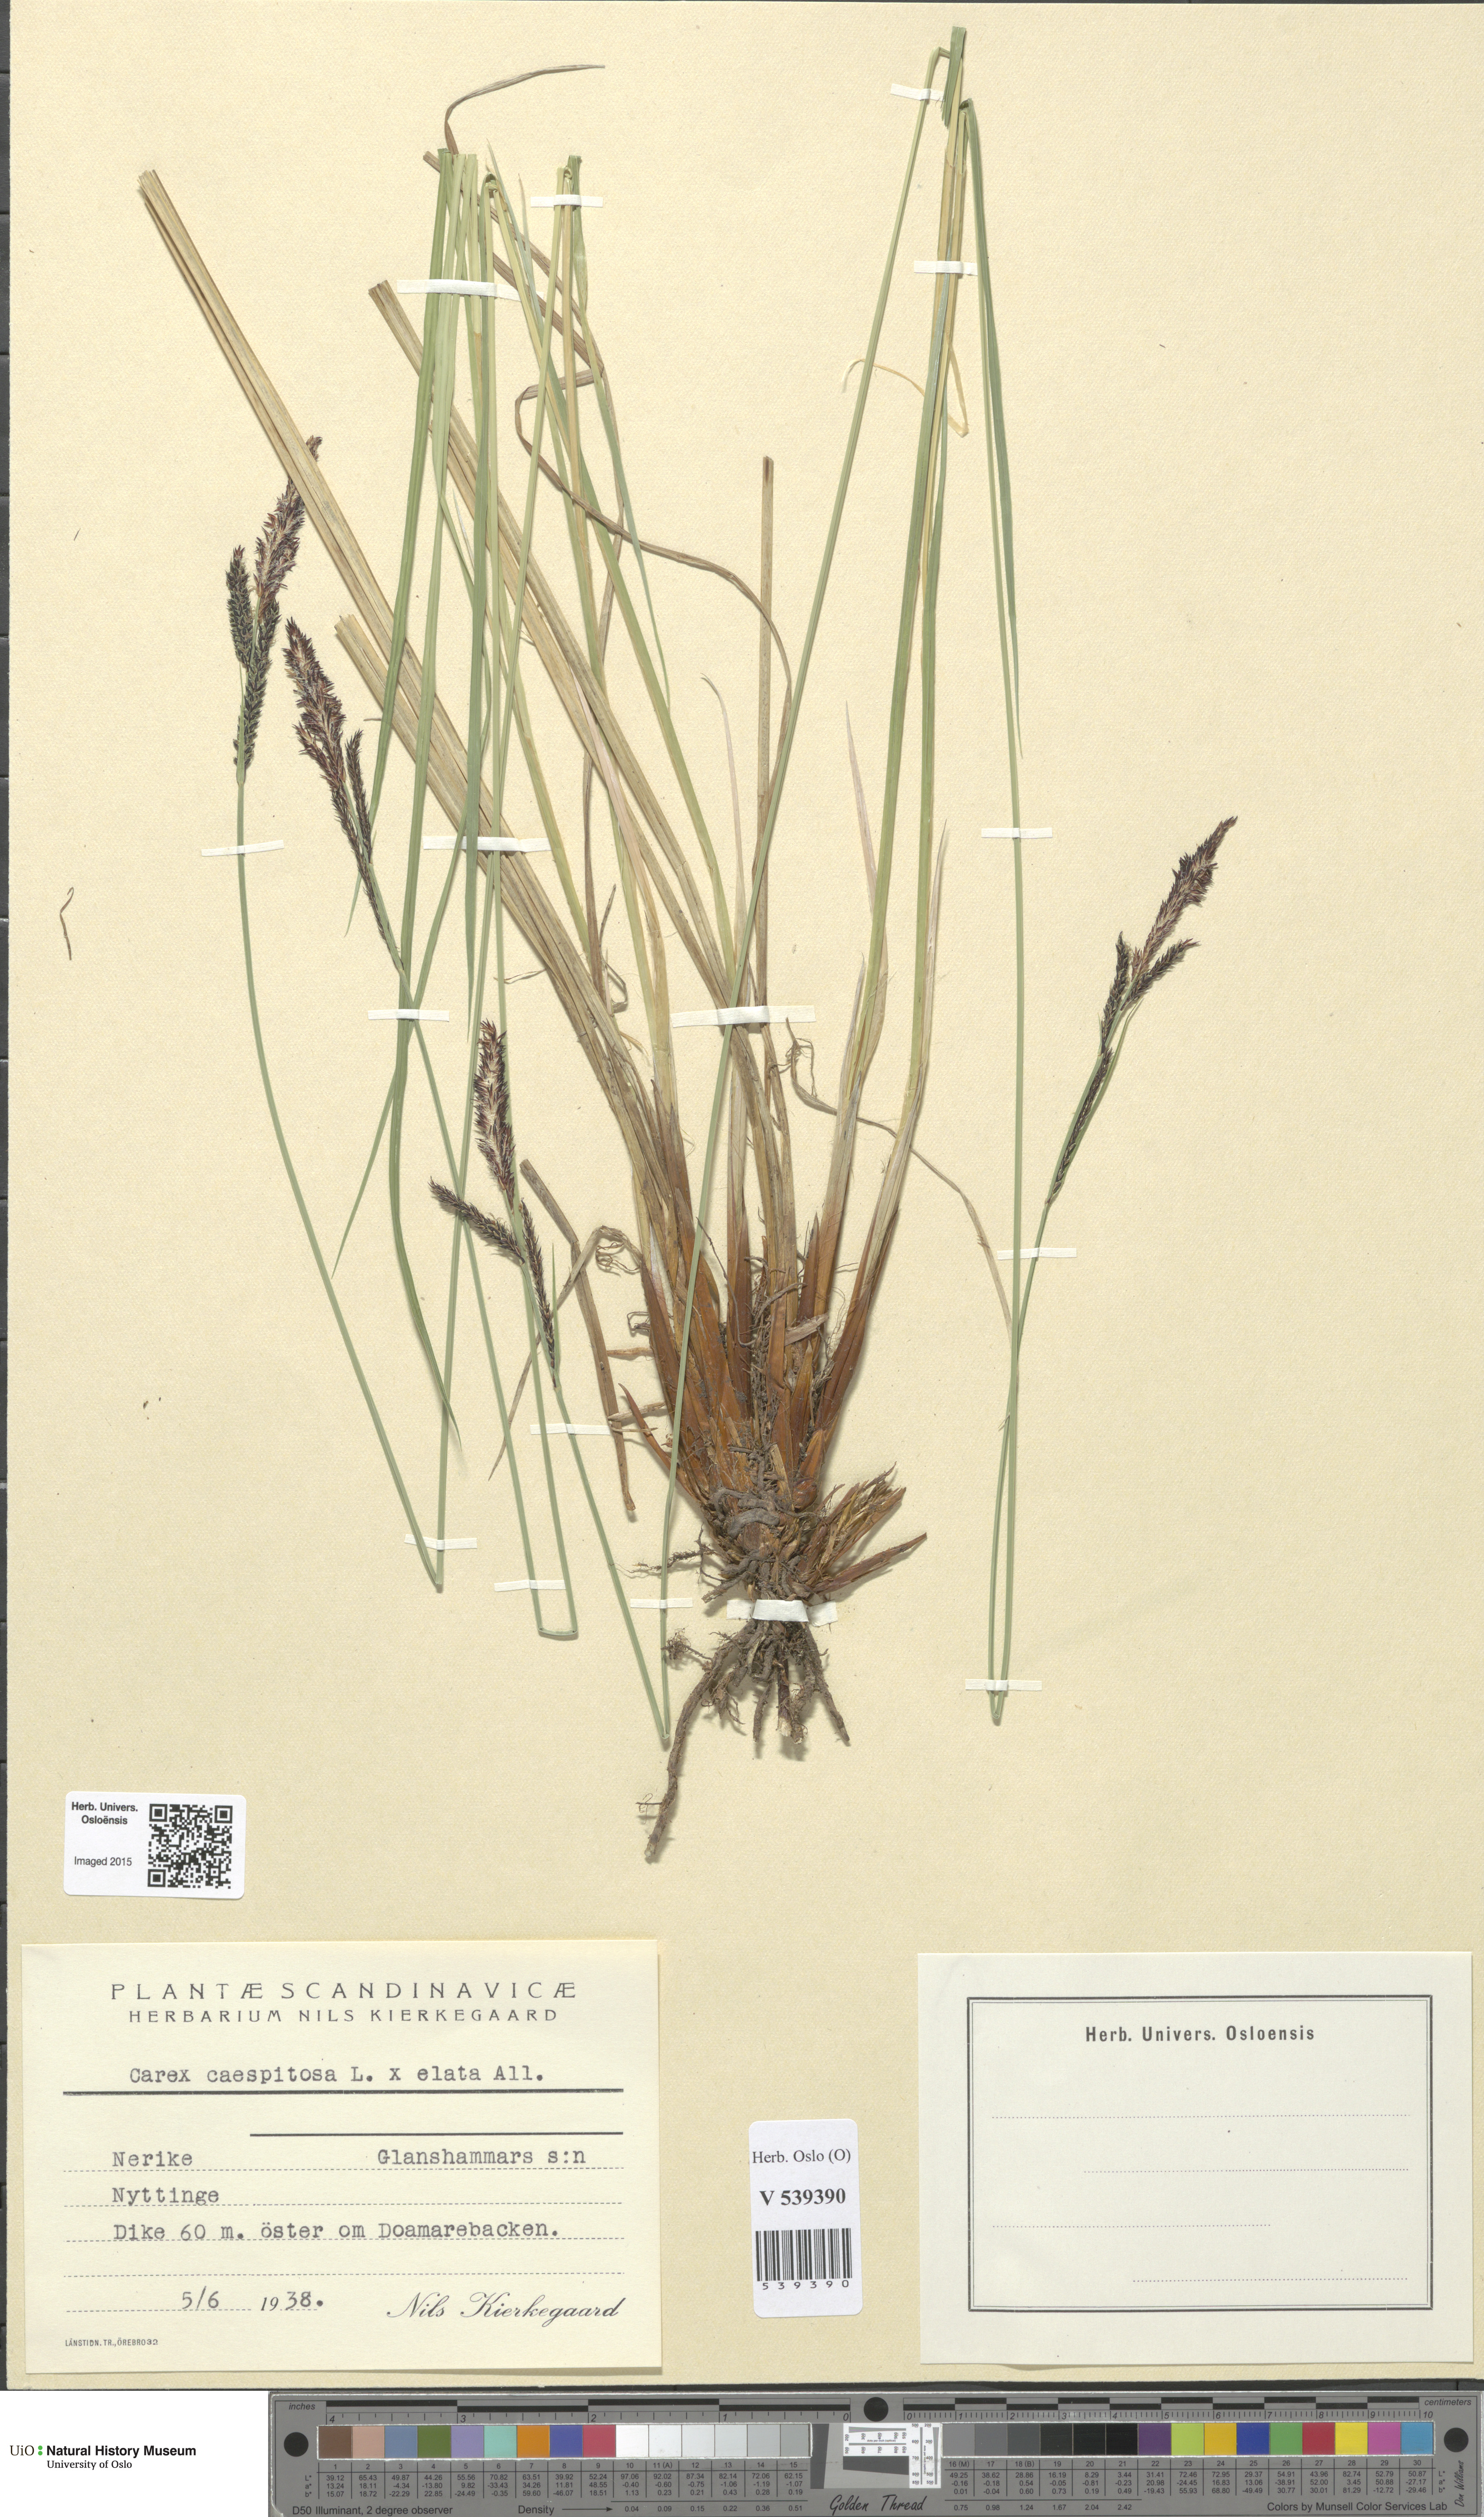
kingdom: Plantae
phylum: Tracheophyta
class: Liliopsida
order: Poales
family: Cyperaceae
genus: Carex
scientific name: Carex
